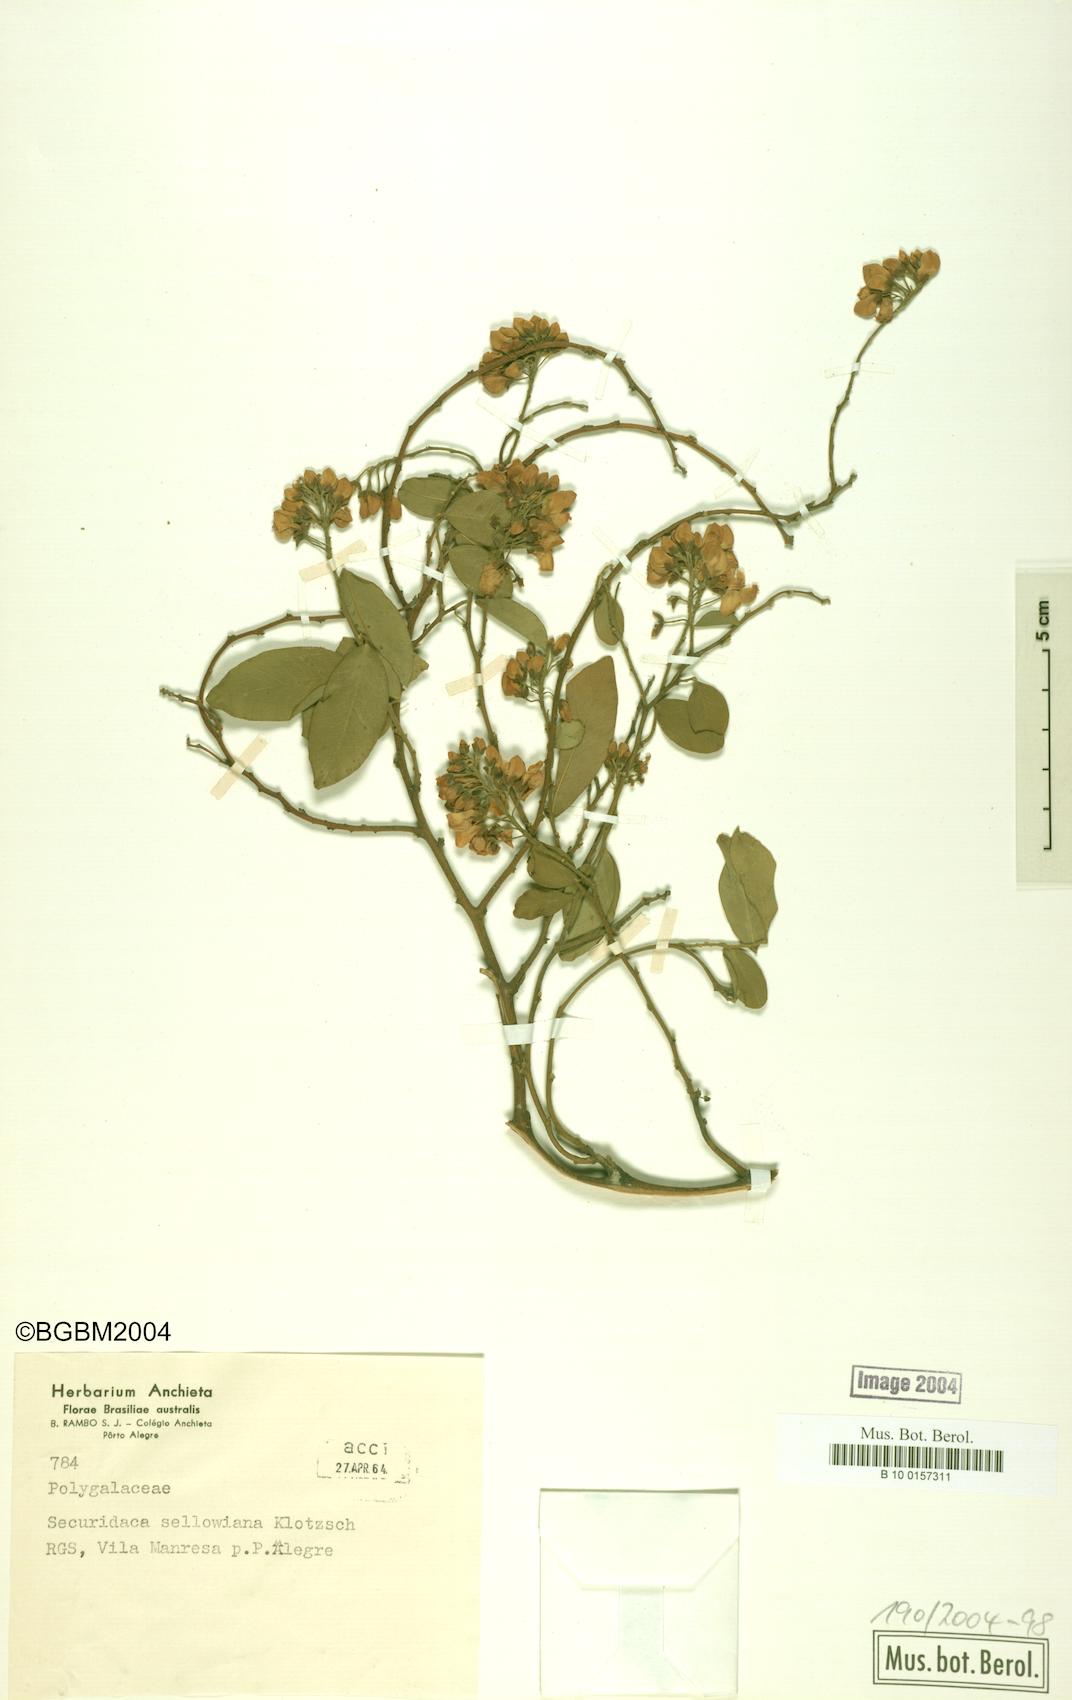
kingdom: Plantae
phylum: Tracheophyta
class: Magnoliopsida
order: Fabales
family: Polygalaceae
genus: Securidaca
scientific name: Securidaca lanceolata
